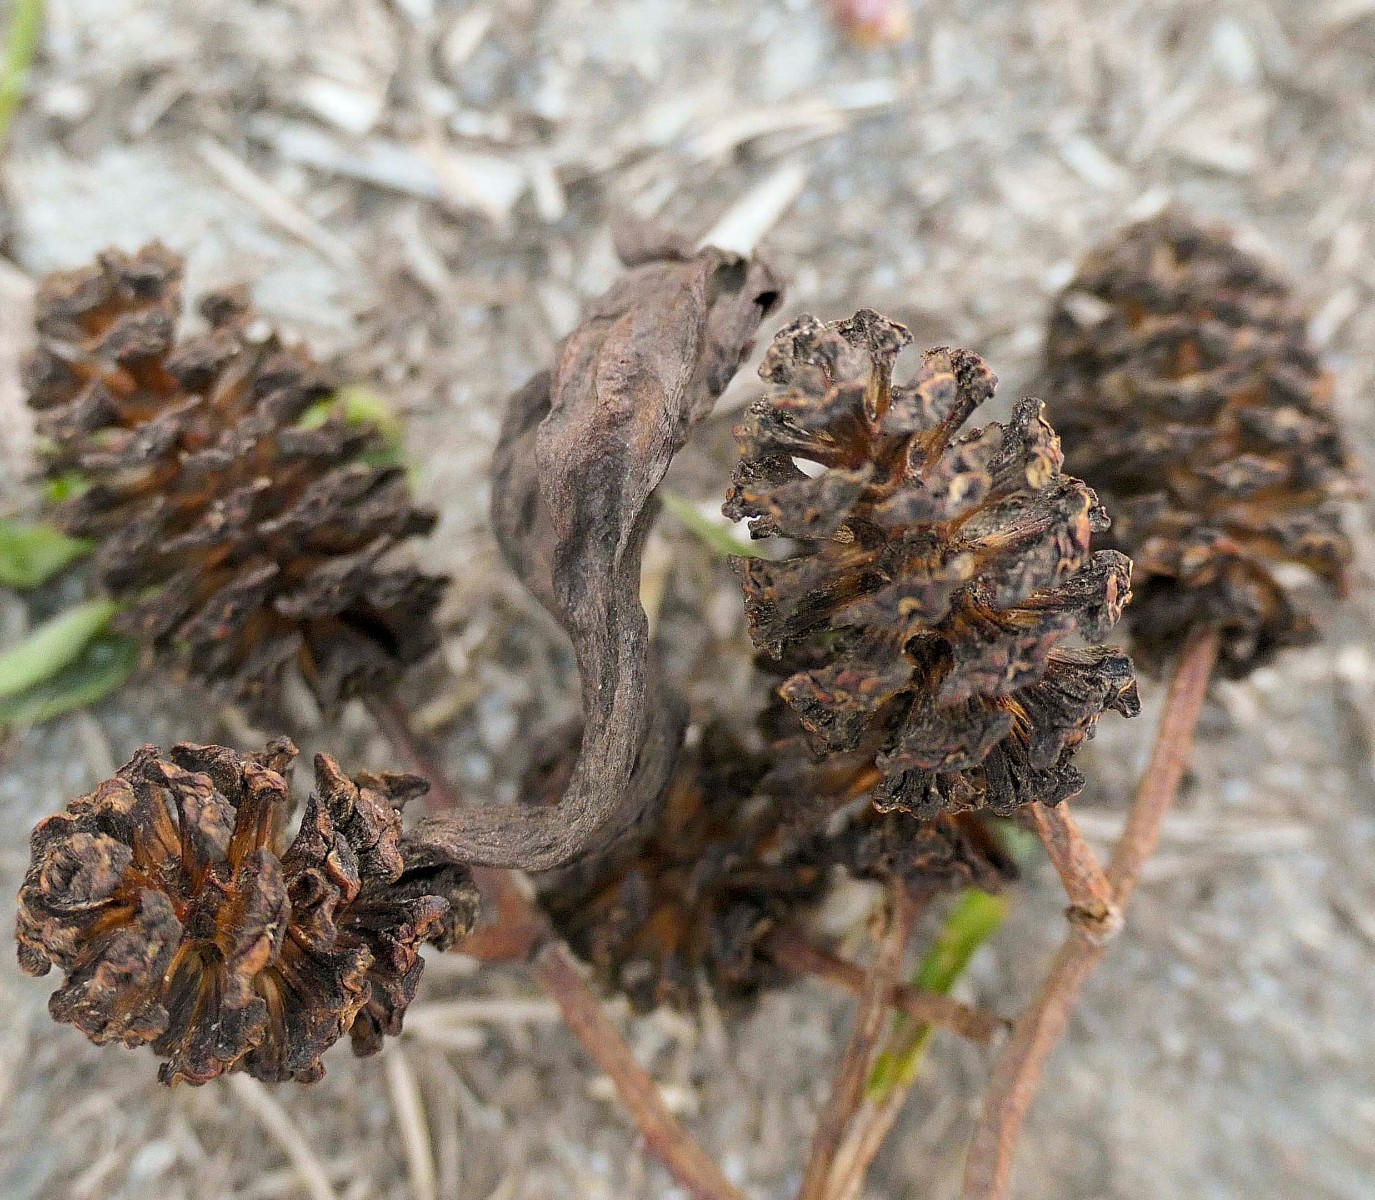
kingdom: Fungi
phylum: Ascomycota
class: Taphrinomycetes
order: Taphrinales
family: Taphrinaceae
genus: Taphrina
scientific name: Taphrina alni
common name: Alder tongue
